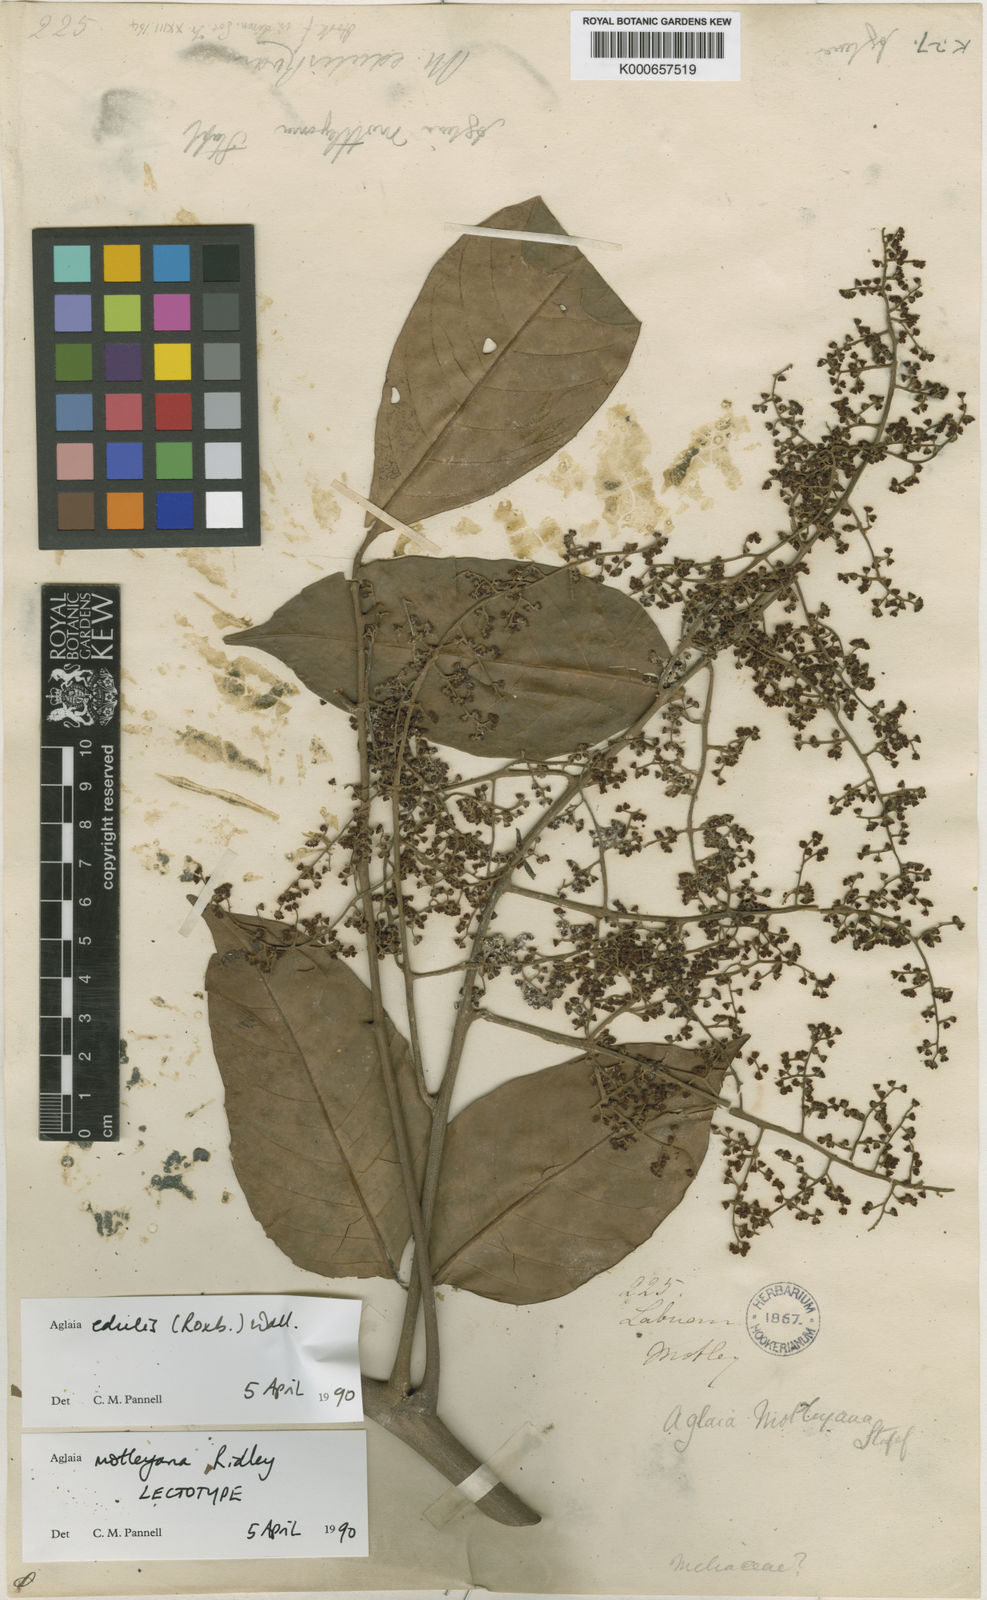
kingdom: Plantae
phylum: Tracheophyta
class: Magnoliopsida
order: Sapindales
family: Meliaceae
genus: Aglaia
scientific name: Aglaia edulis
